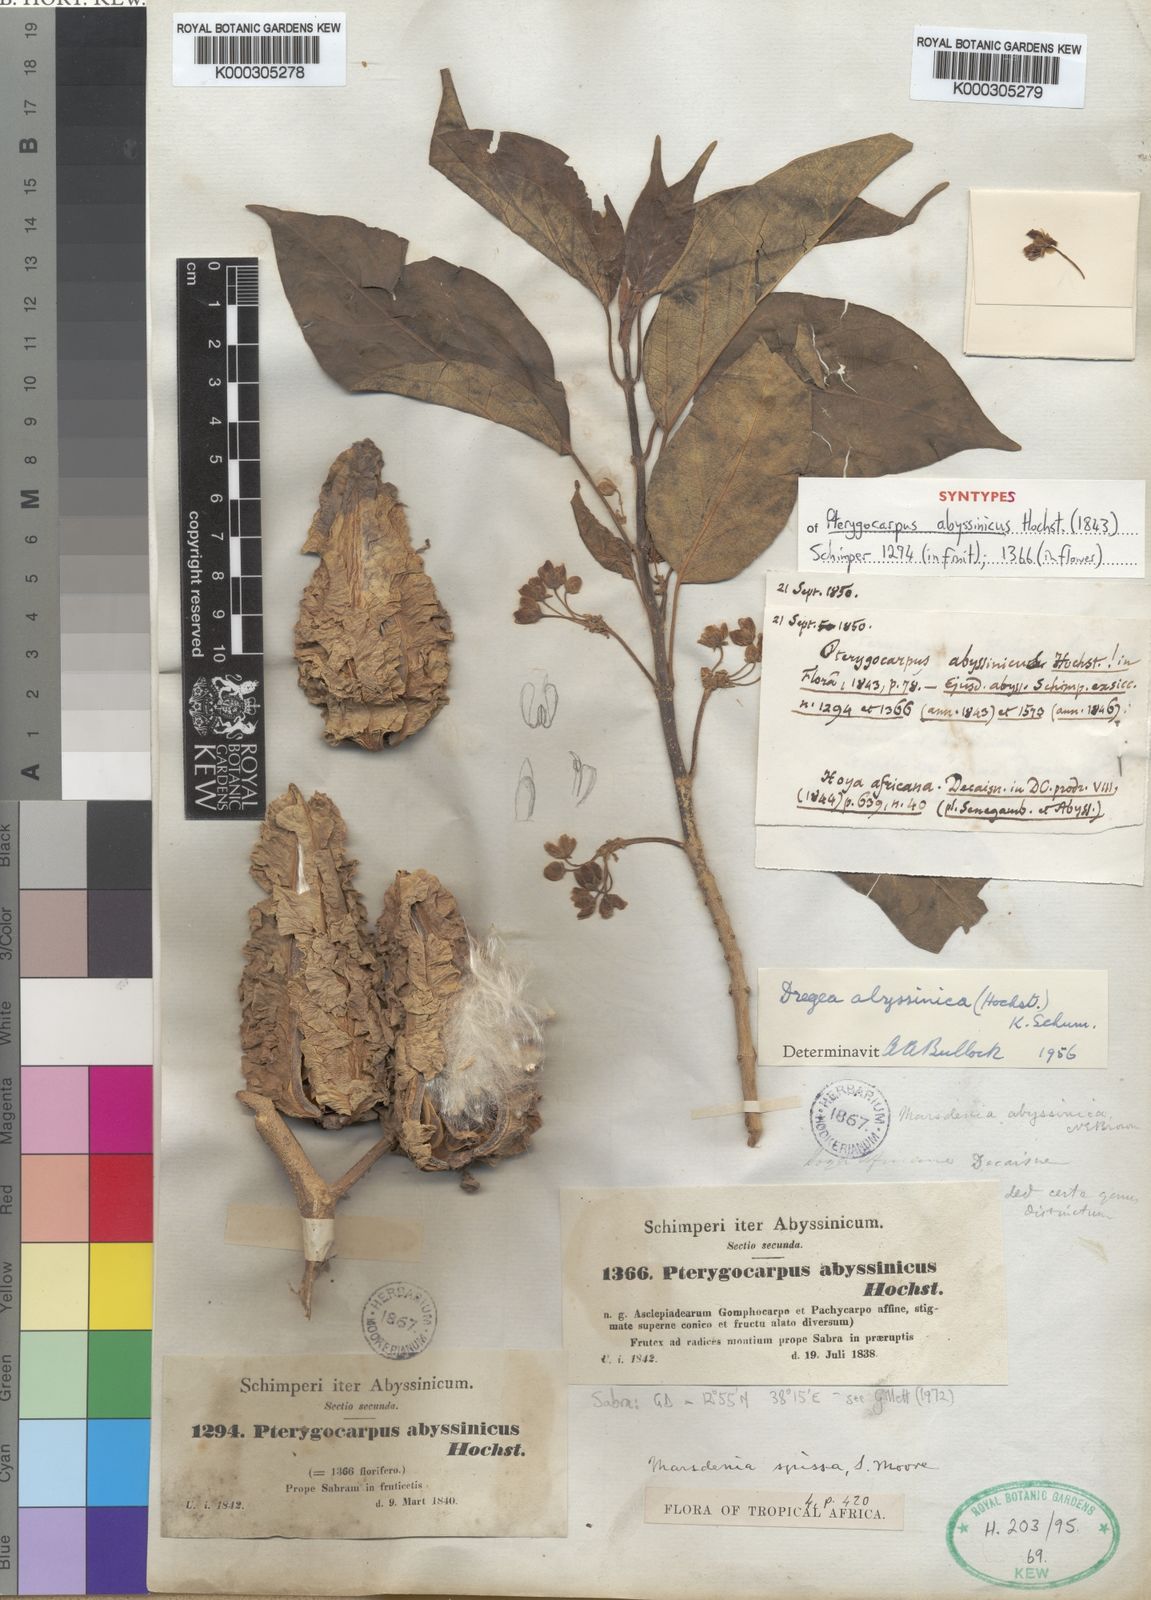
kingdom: Plantae
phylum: Tracheophyta
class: Magnoliopsida
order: Gentianales
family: Apocynaceae
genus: Stephanotis
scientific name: Stephanotis abyssinica
